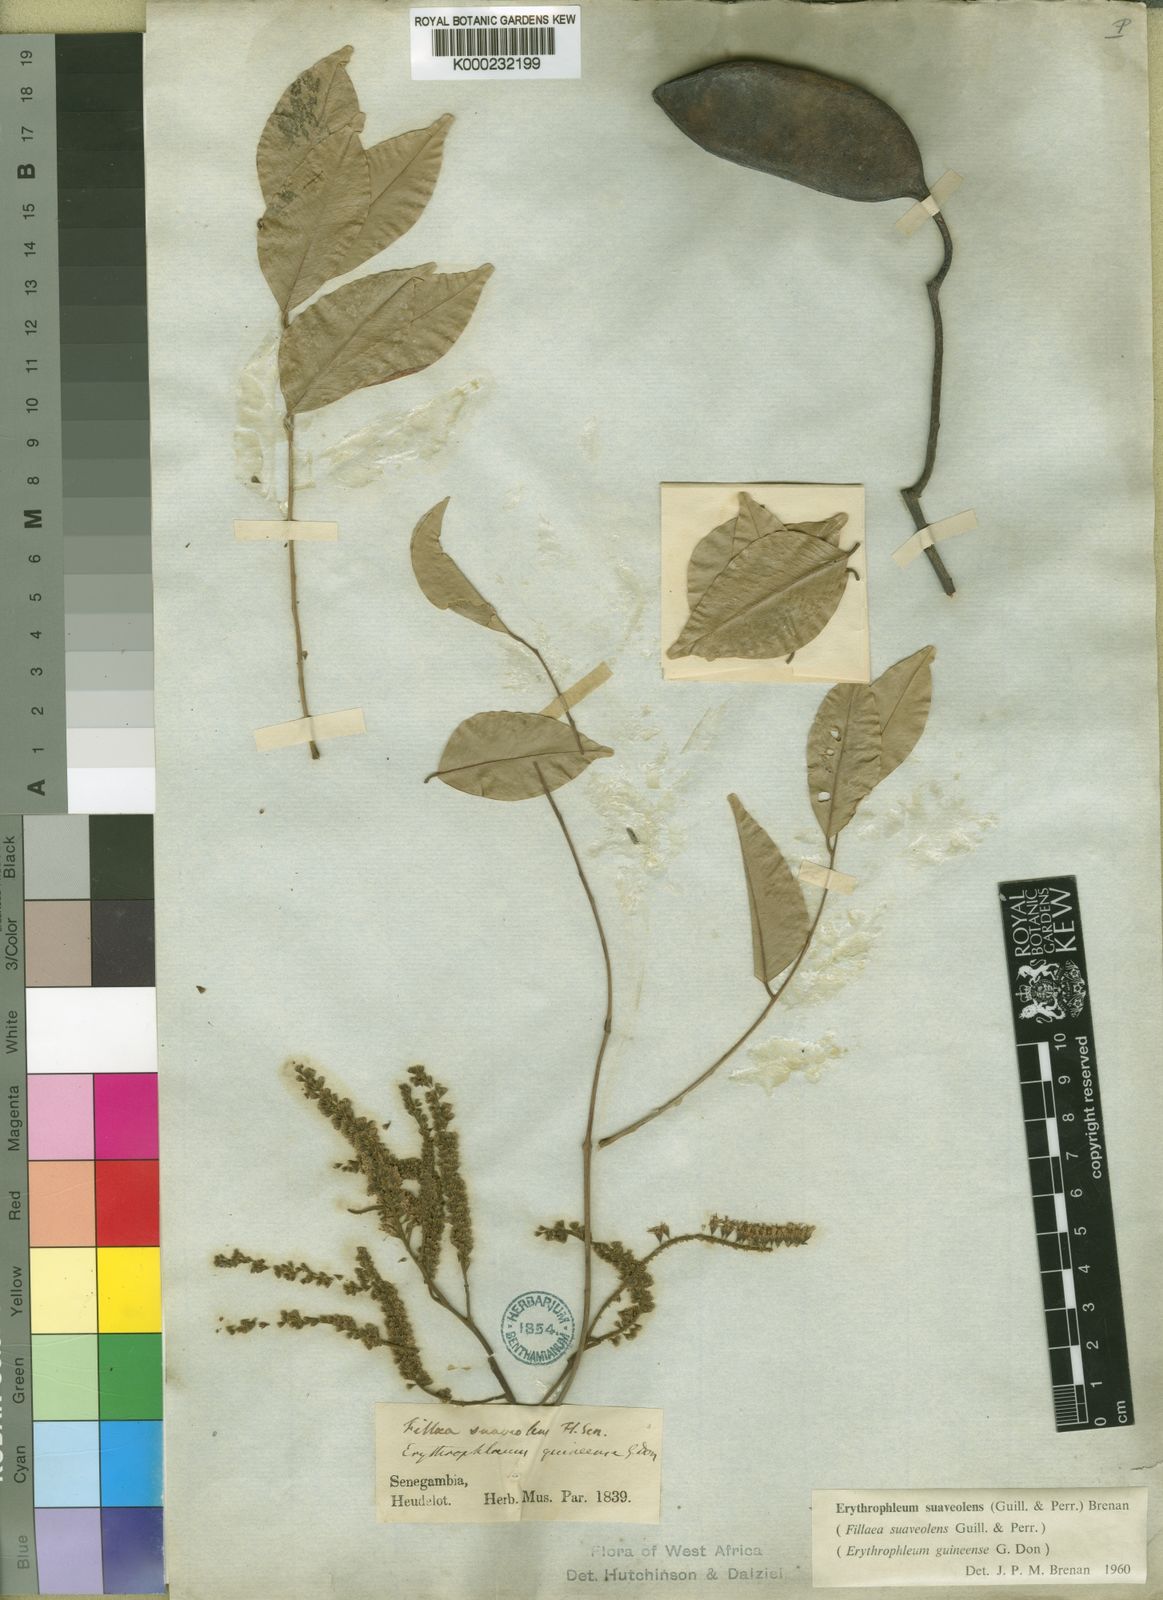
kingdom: Plantae
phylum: Tracheophyta
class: Magnoliopsida
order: Fabales
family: Fabaceae
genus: Erythrophleum
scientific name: Erythrophleum suaveolens
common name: Ordeal tree
